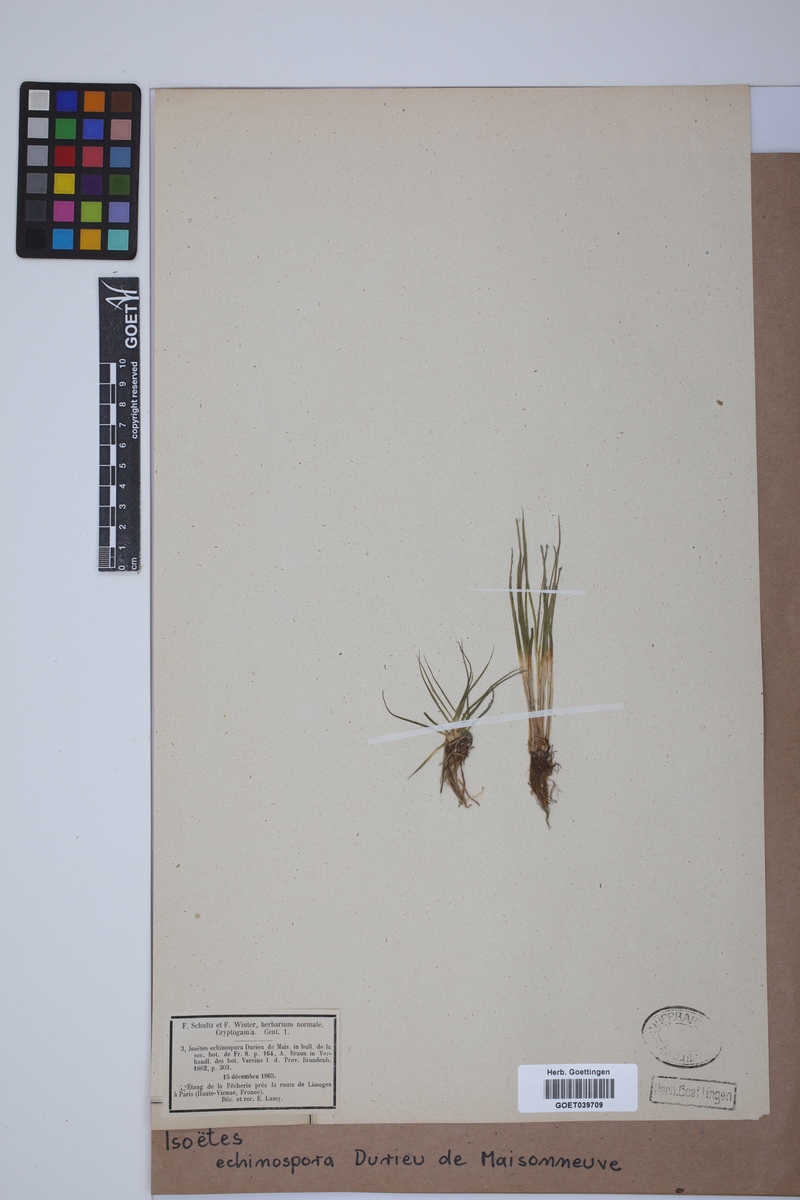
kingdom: Plantae
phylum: Tracheophyta
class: Lycopodiopsida
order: Isoetales
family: Isoetaceae
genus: Isoetes
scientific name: Isoetes echinospora
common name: Spring quillwort
